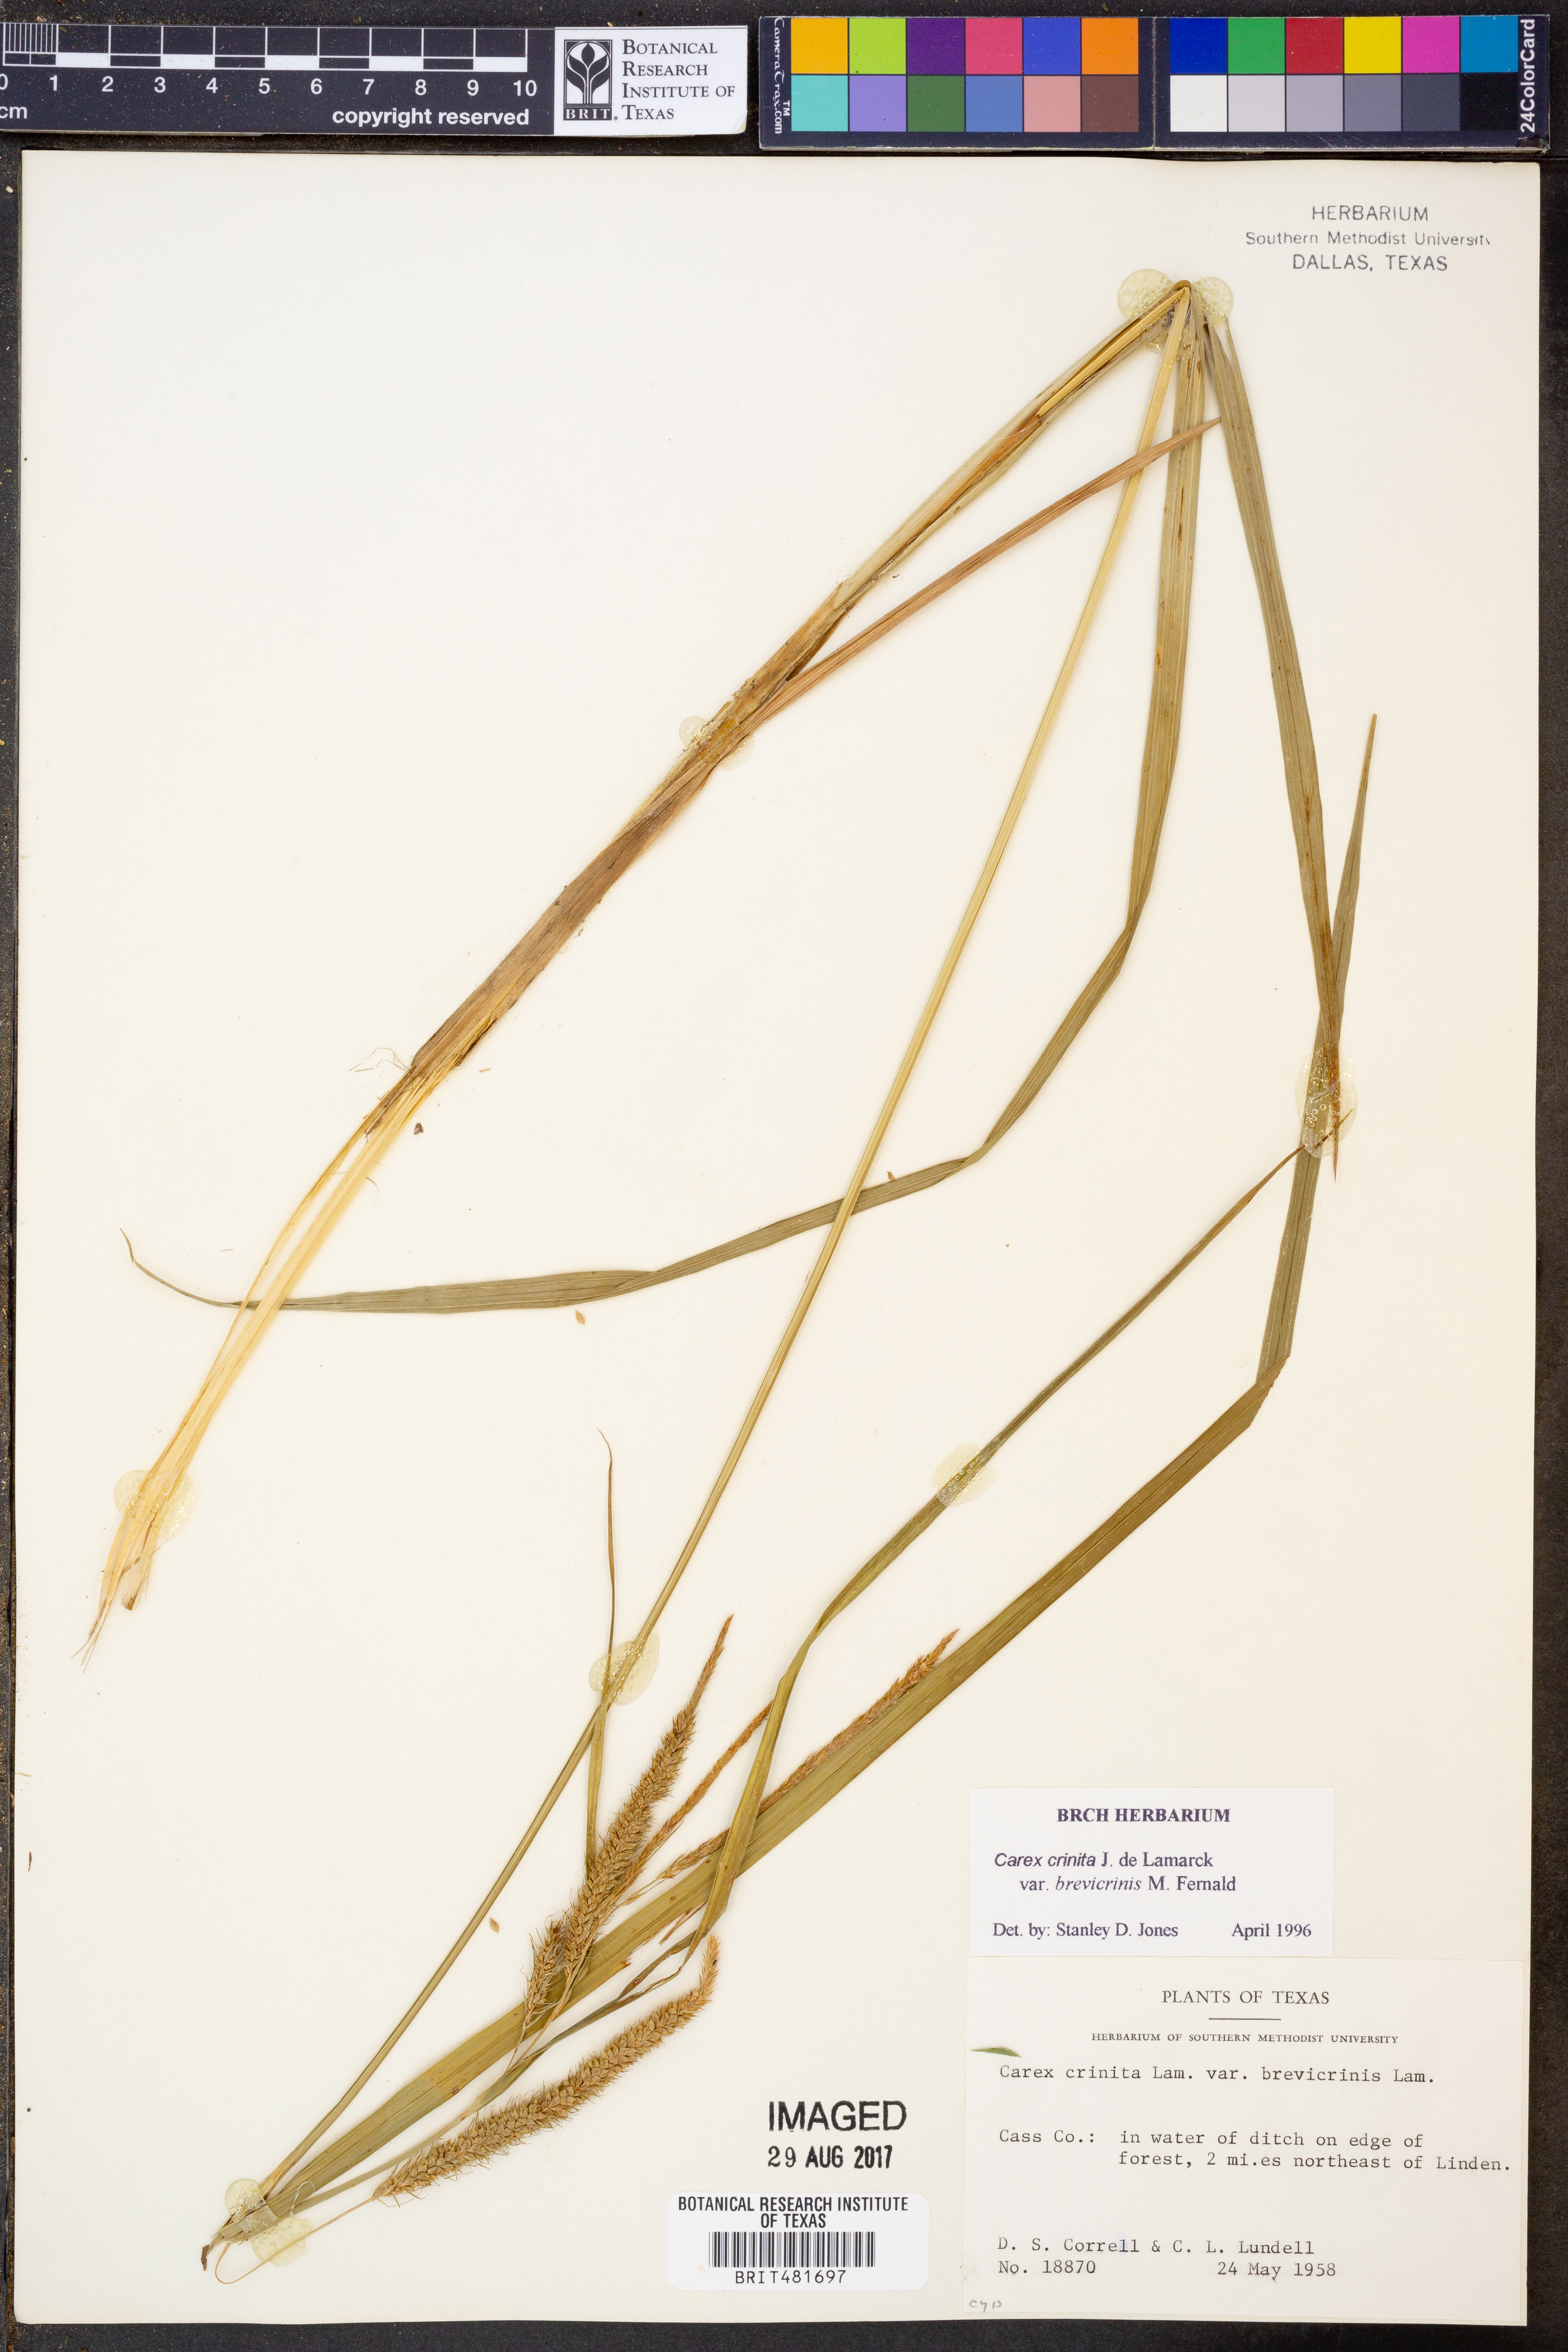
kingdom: Plantae
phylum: Tracheophyta
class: Liliopsida
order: Poales
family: Cyperaceae
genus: Carex
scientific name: Carex crinita
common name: Fringed sedge
